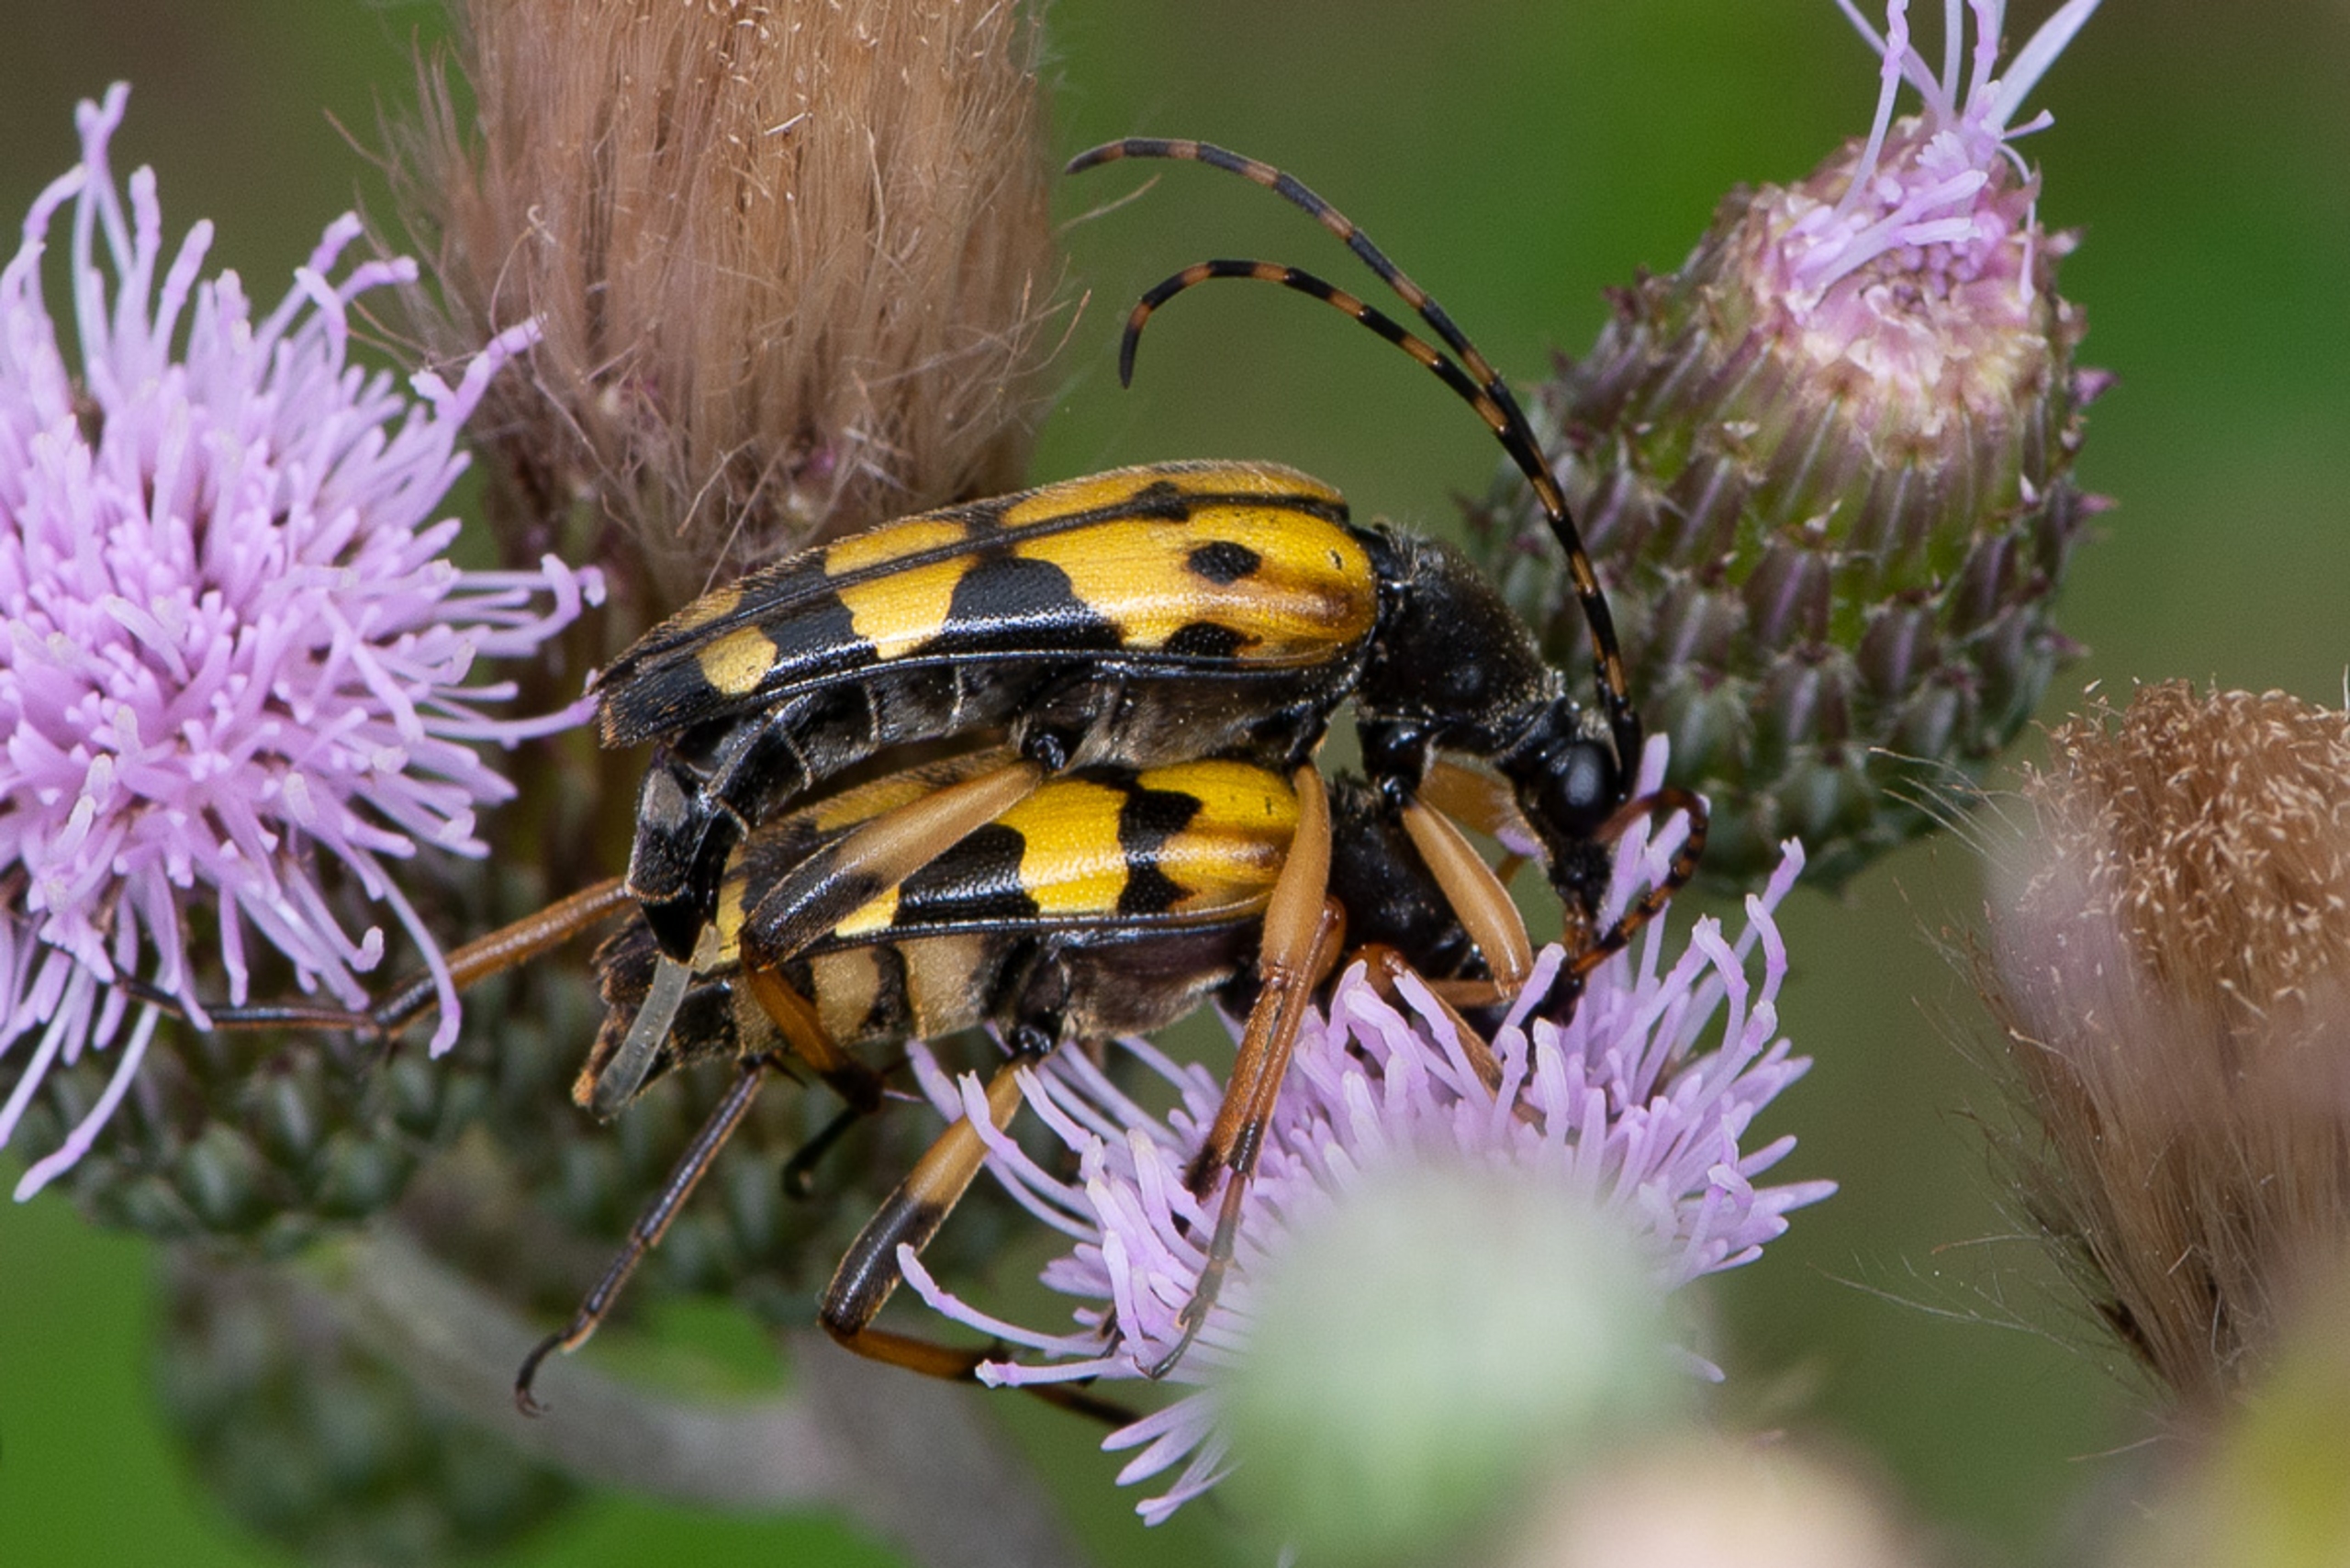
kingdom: Animalia
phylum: Arthropoda
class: Insecta
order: Coleoptera
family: Cerambycidae
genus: Rutpela
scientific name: Rutpela maculata
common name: Sydlig blomsterbuk
